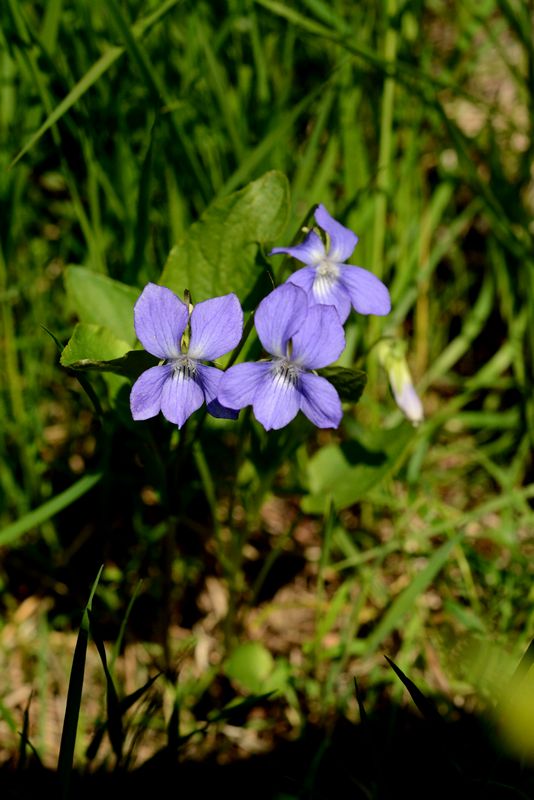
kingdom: Plantae
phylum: Tracheophyta
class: Magnoliopsida
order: Malpighiales
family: Violaceae
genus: Viola
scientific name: Viola canina
